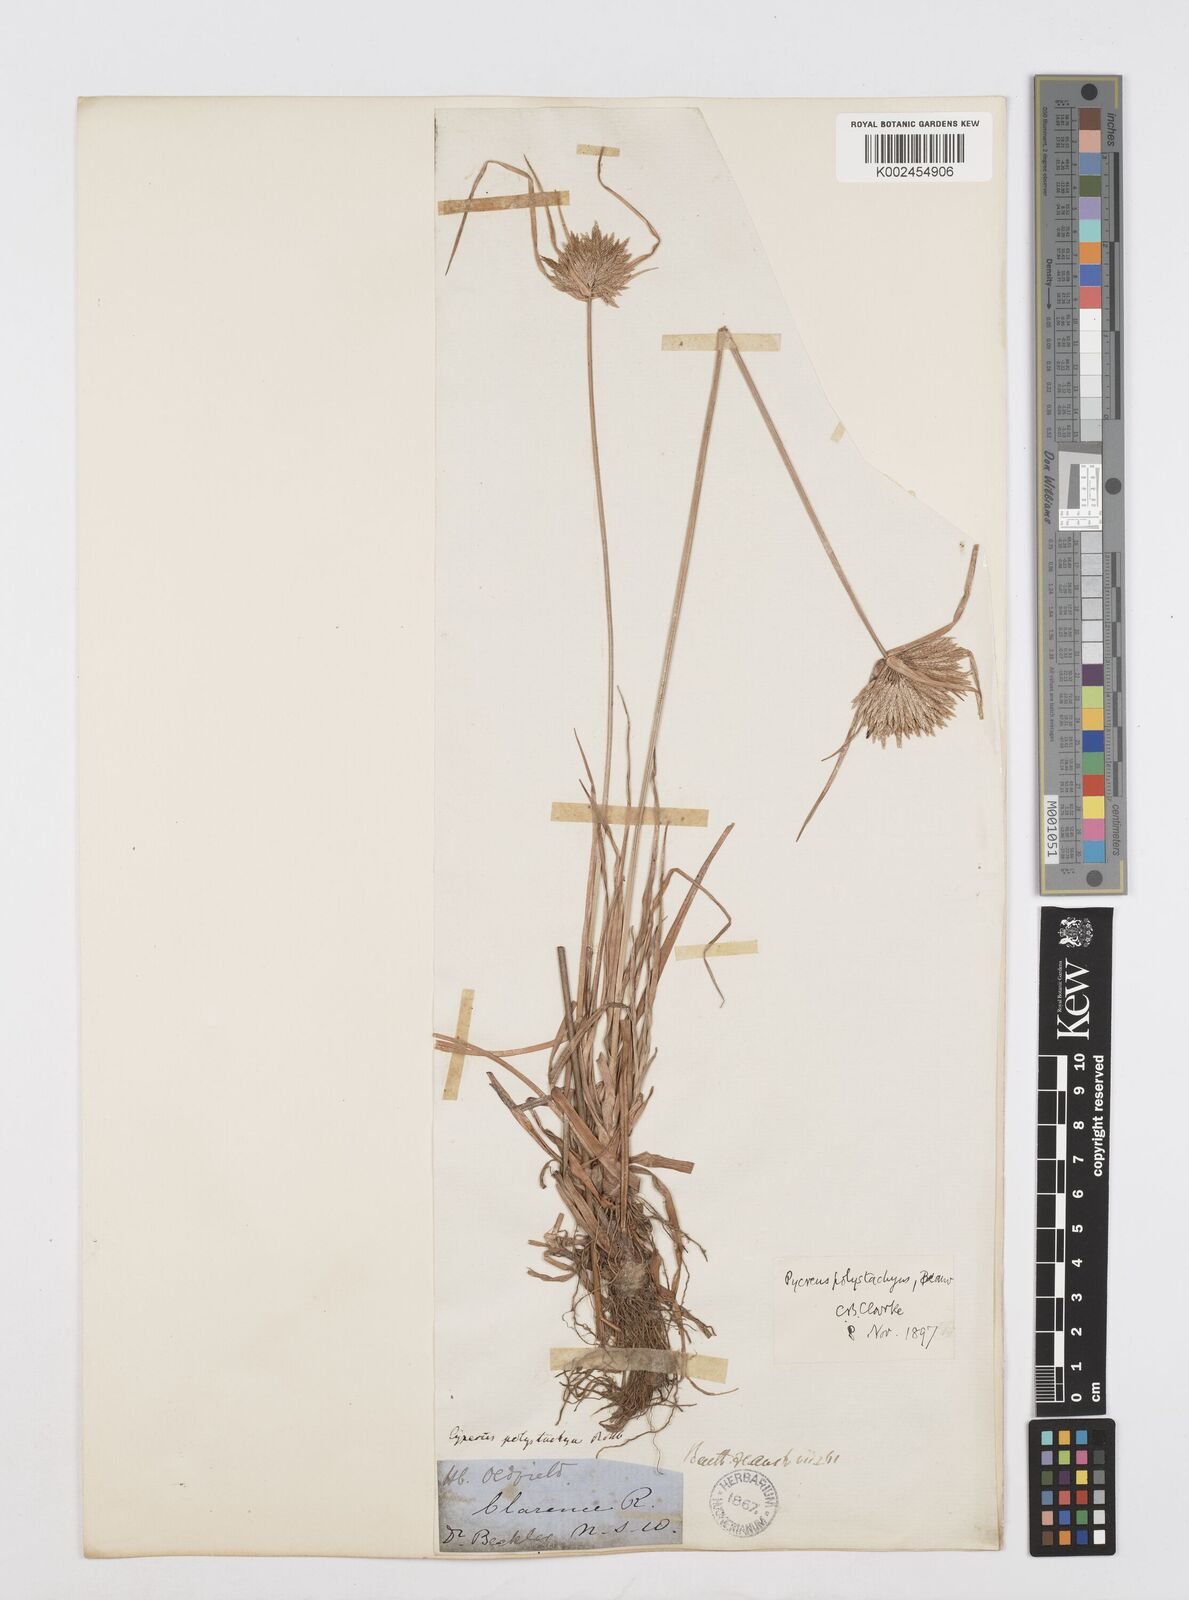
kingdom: Plantae
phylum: Tracheophyta
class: Liliopsida
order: Poales
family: Cyperaceae
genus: Cyperus
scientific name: Cyperus polystachyos
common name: Bunchy flat sedge
